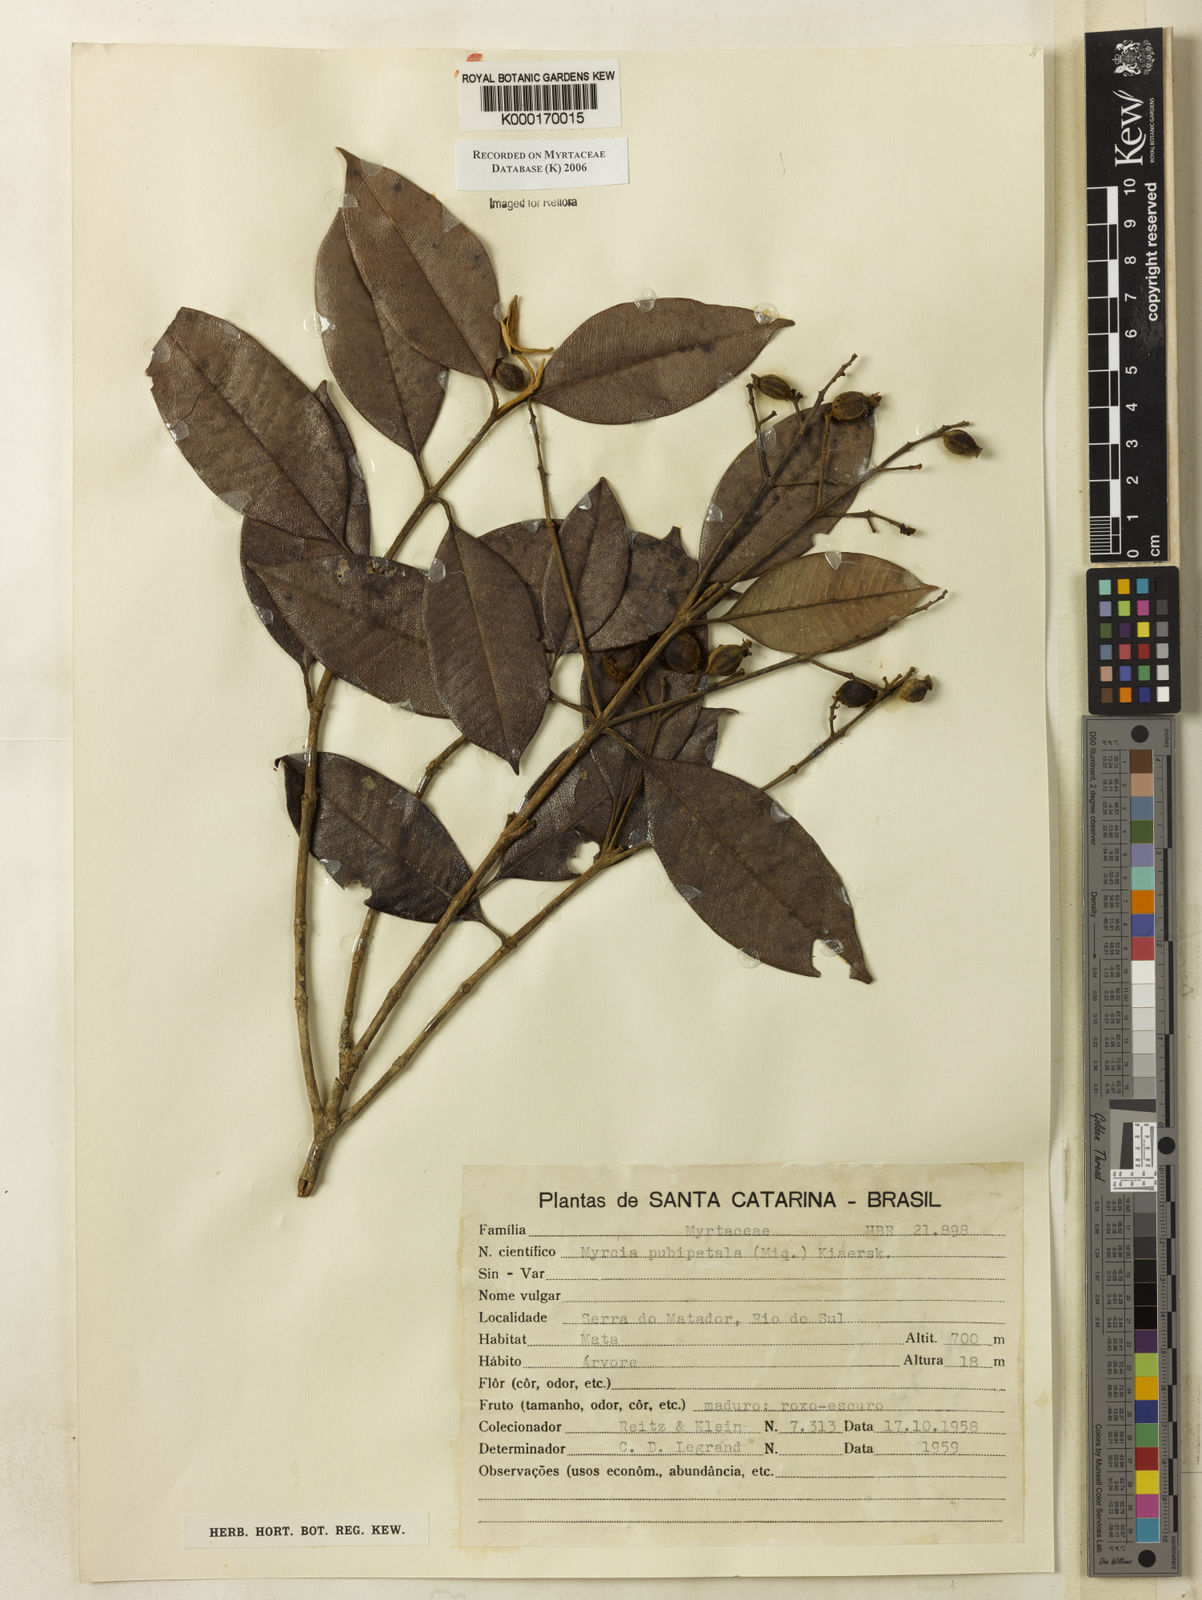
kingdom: Plantae
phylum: Tracheophyta
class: Magnoliopsida
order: Myrtales
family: Myrtaceae
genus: Myrcia
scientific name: Myrcia
